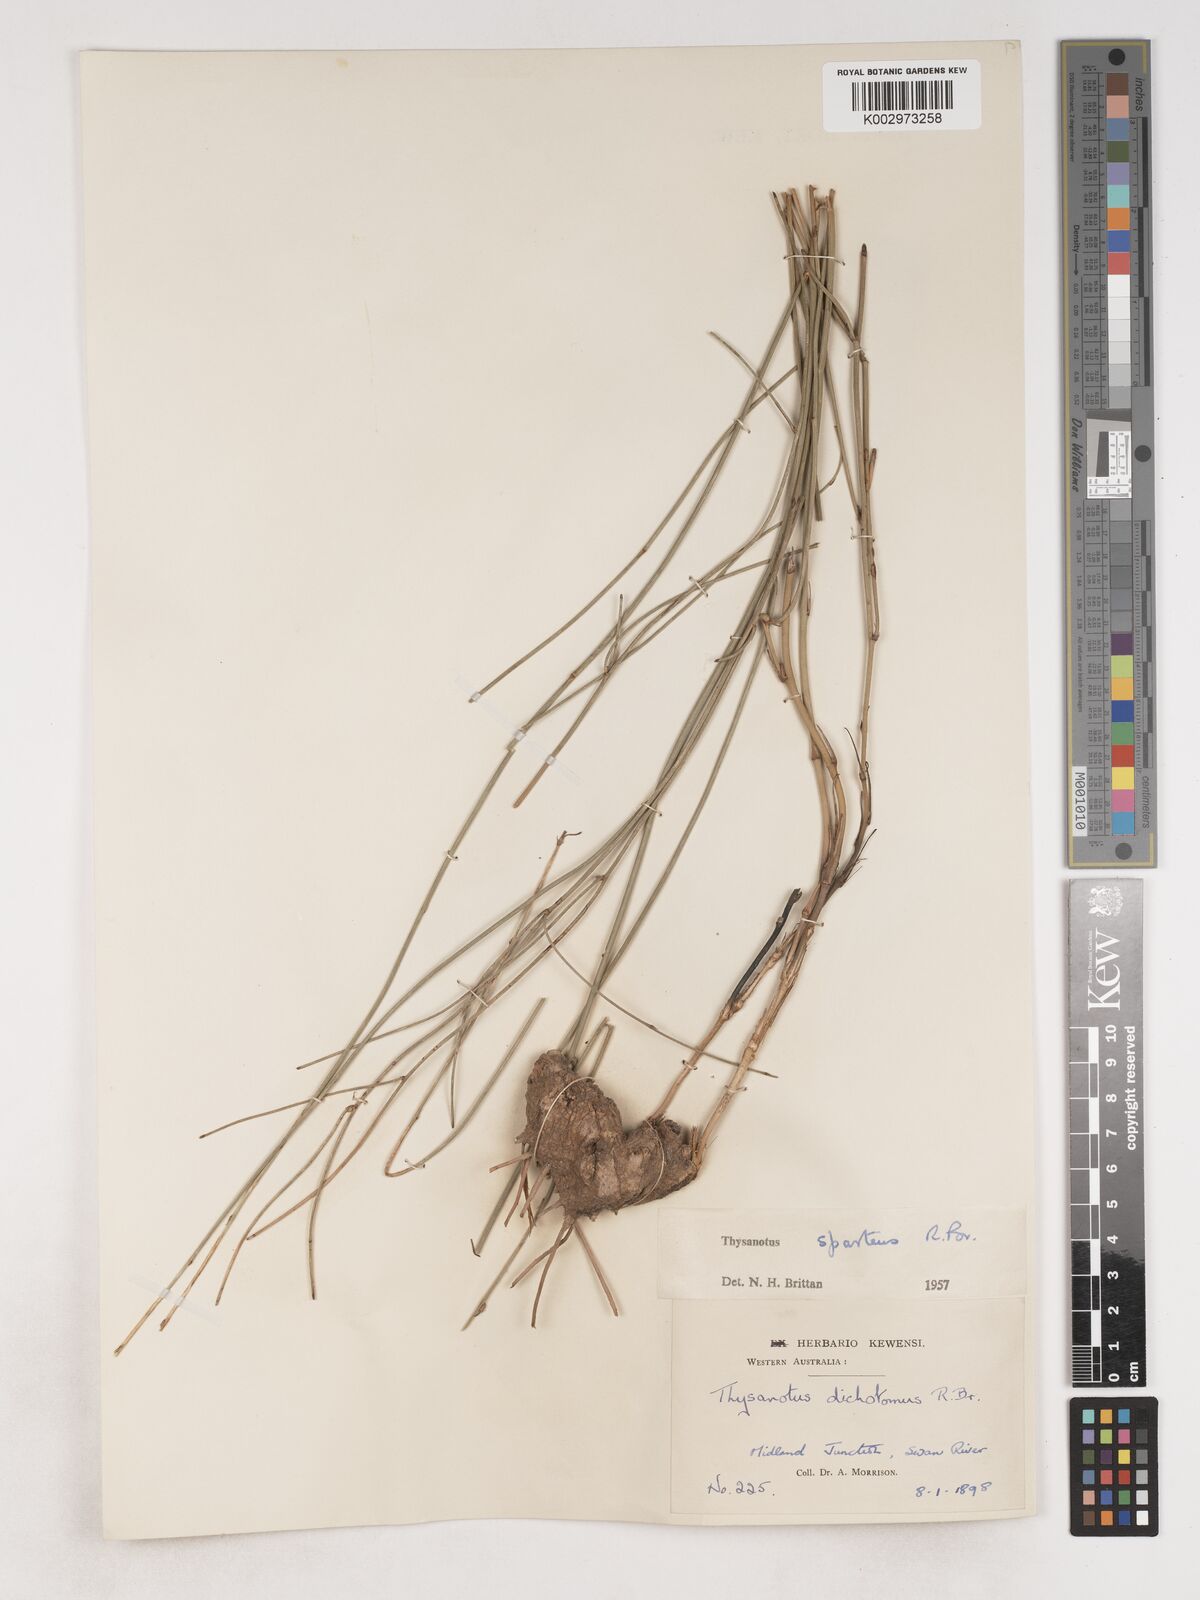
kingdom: Plantae
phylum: Tracheophyta
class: Liliopsida
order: Asparagales
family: Asparagaceae
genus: Thysanotus
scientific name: Thysanotus sparteus
